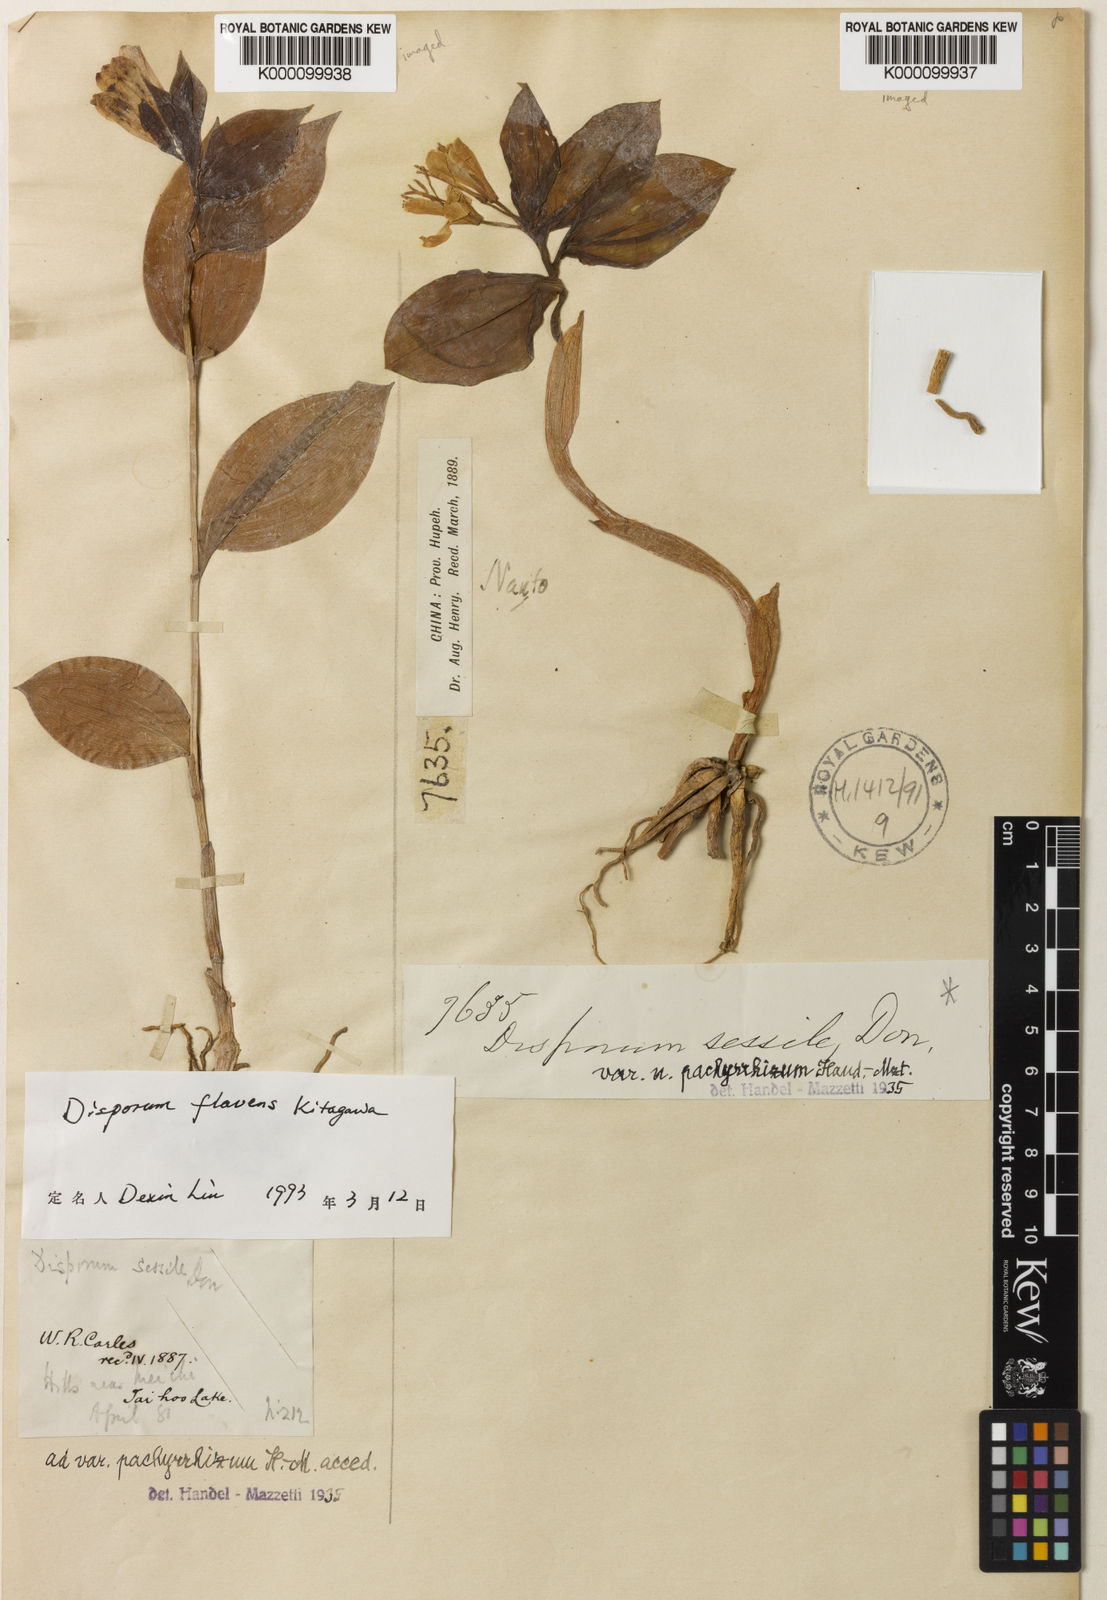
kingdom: Plantae
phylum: Tracheophyta
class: Liliopsida
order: Liliales
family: Colchicaceae
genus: Disporum
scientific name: Disporum
